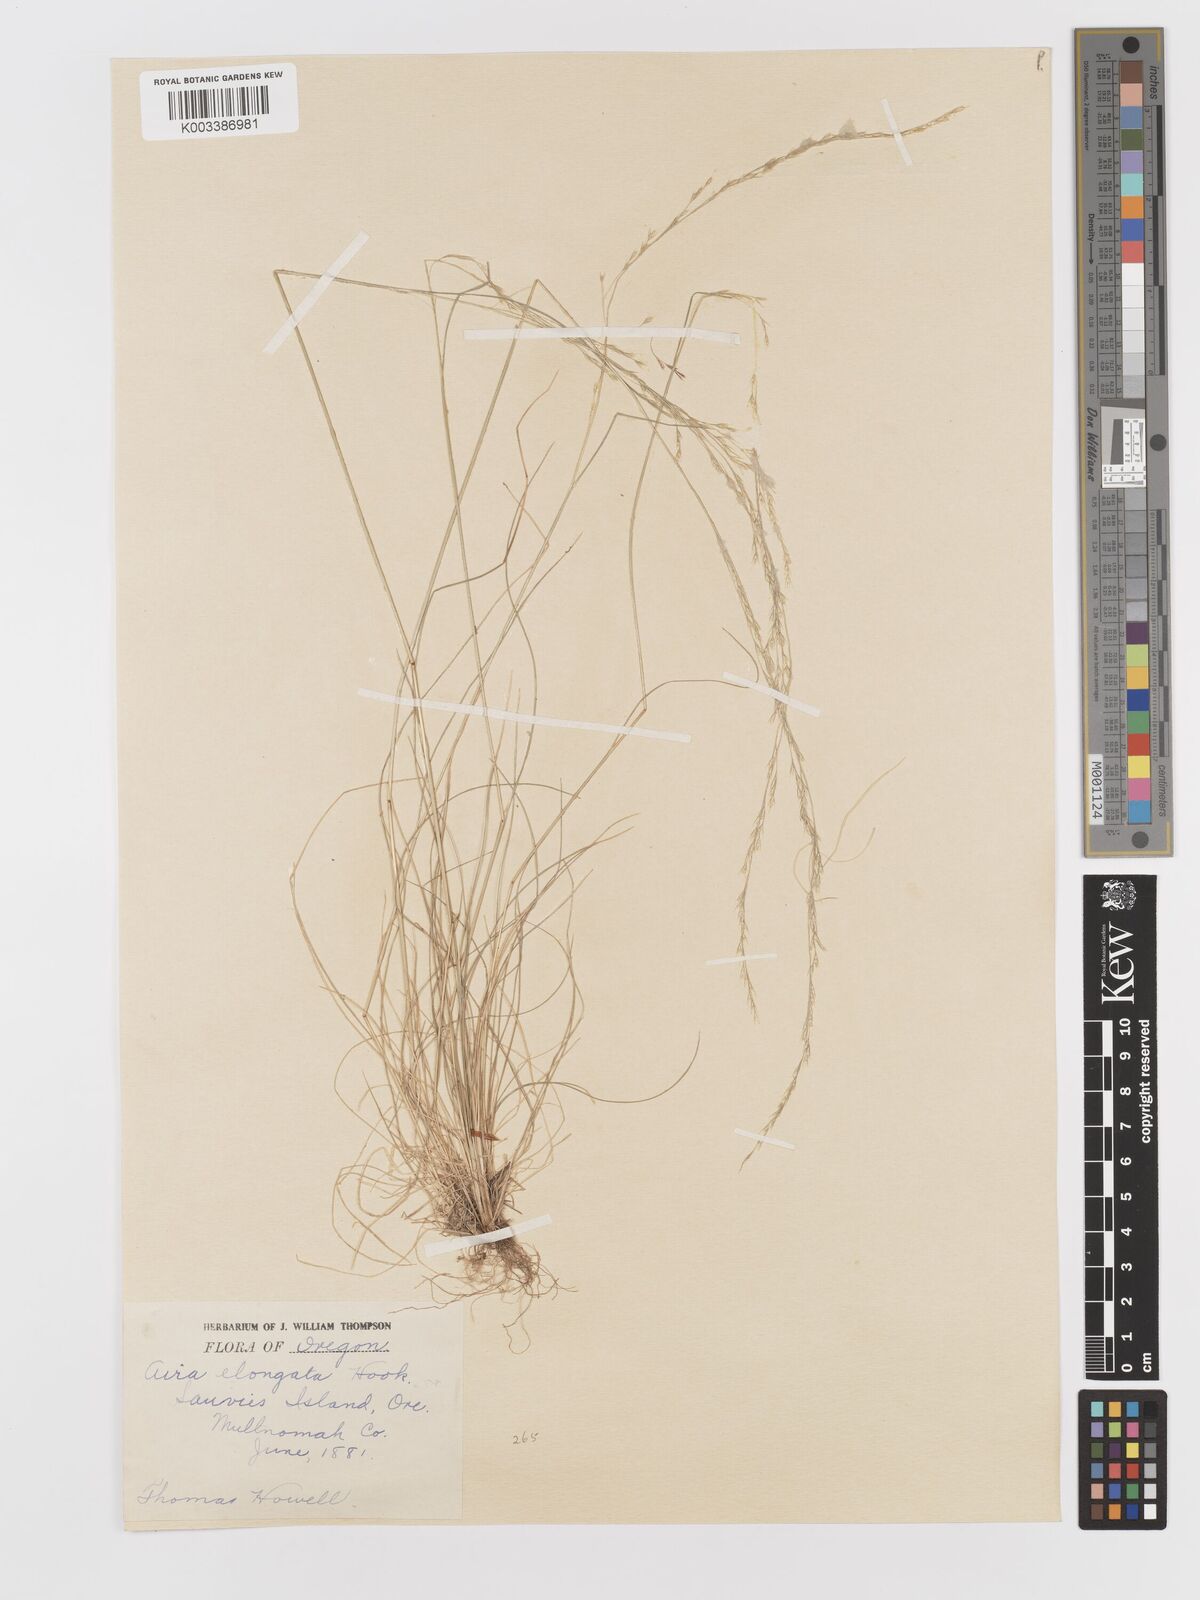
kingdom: Plantae
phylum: Tracheophyta
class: Liliopsida
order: Poales
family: Poaceae
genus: Deschampsia
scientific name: Deschampsia elongata
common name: Slender hairgrass
